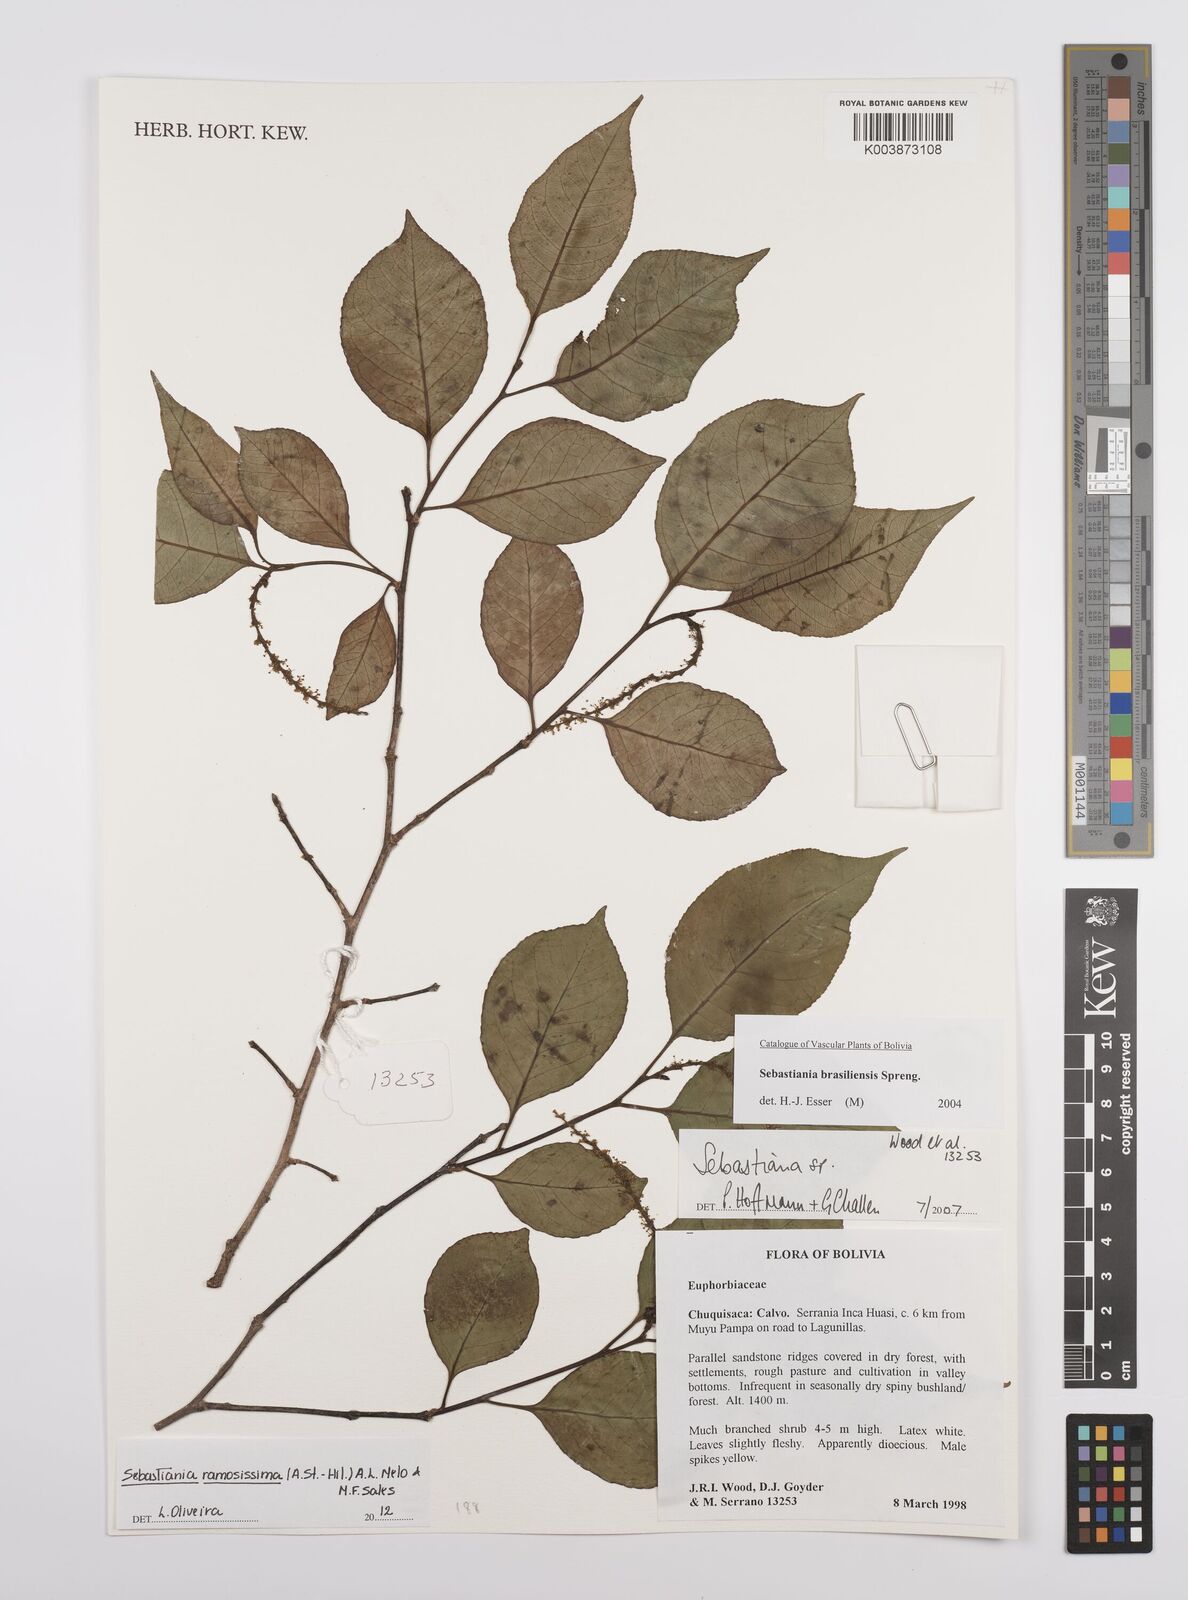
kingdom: Plantae
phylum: Tracheophyta
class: Magnoliopsida
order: Malpighiales
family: Euphorbiaceae
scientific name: Euphorbiaceae
